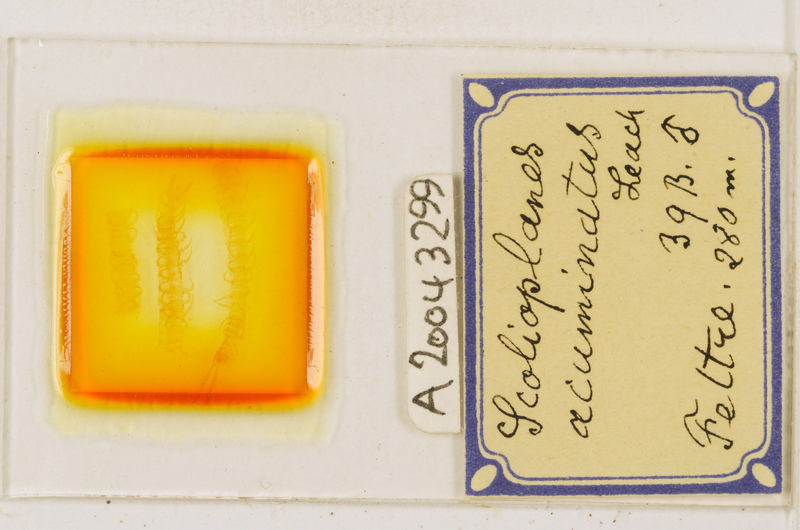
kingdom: Animalia
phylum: Arthropoda
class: Chilopoda
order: Geophilomorpha
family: Linotaeniidae
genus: Strigamia
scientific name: Strigamia acuminata
